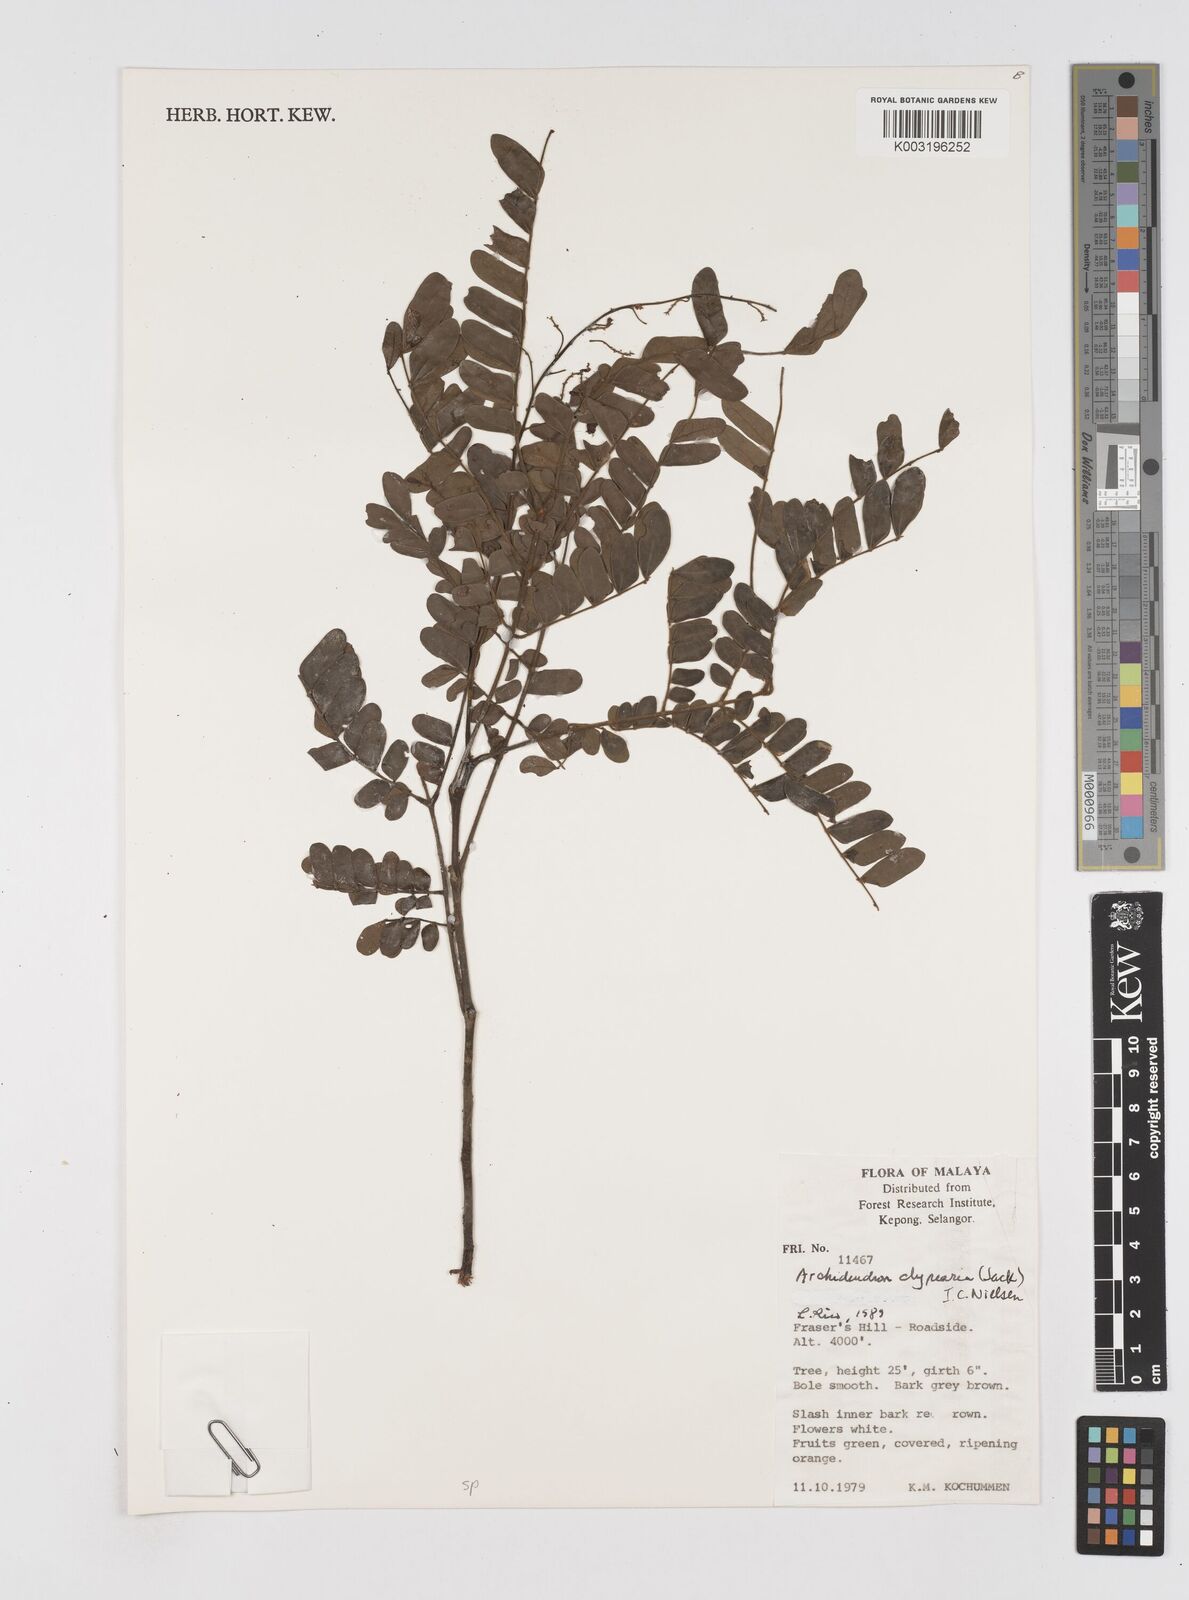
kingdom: Plantae
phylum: Tracheophyta
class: Magnoliopsida
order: Fabales
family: Fabaceae
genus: Archidendron
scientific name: Archidendron clypearia
